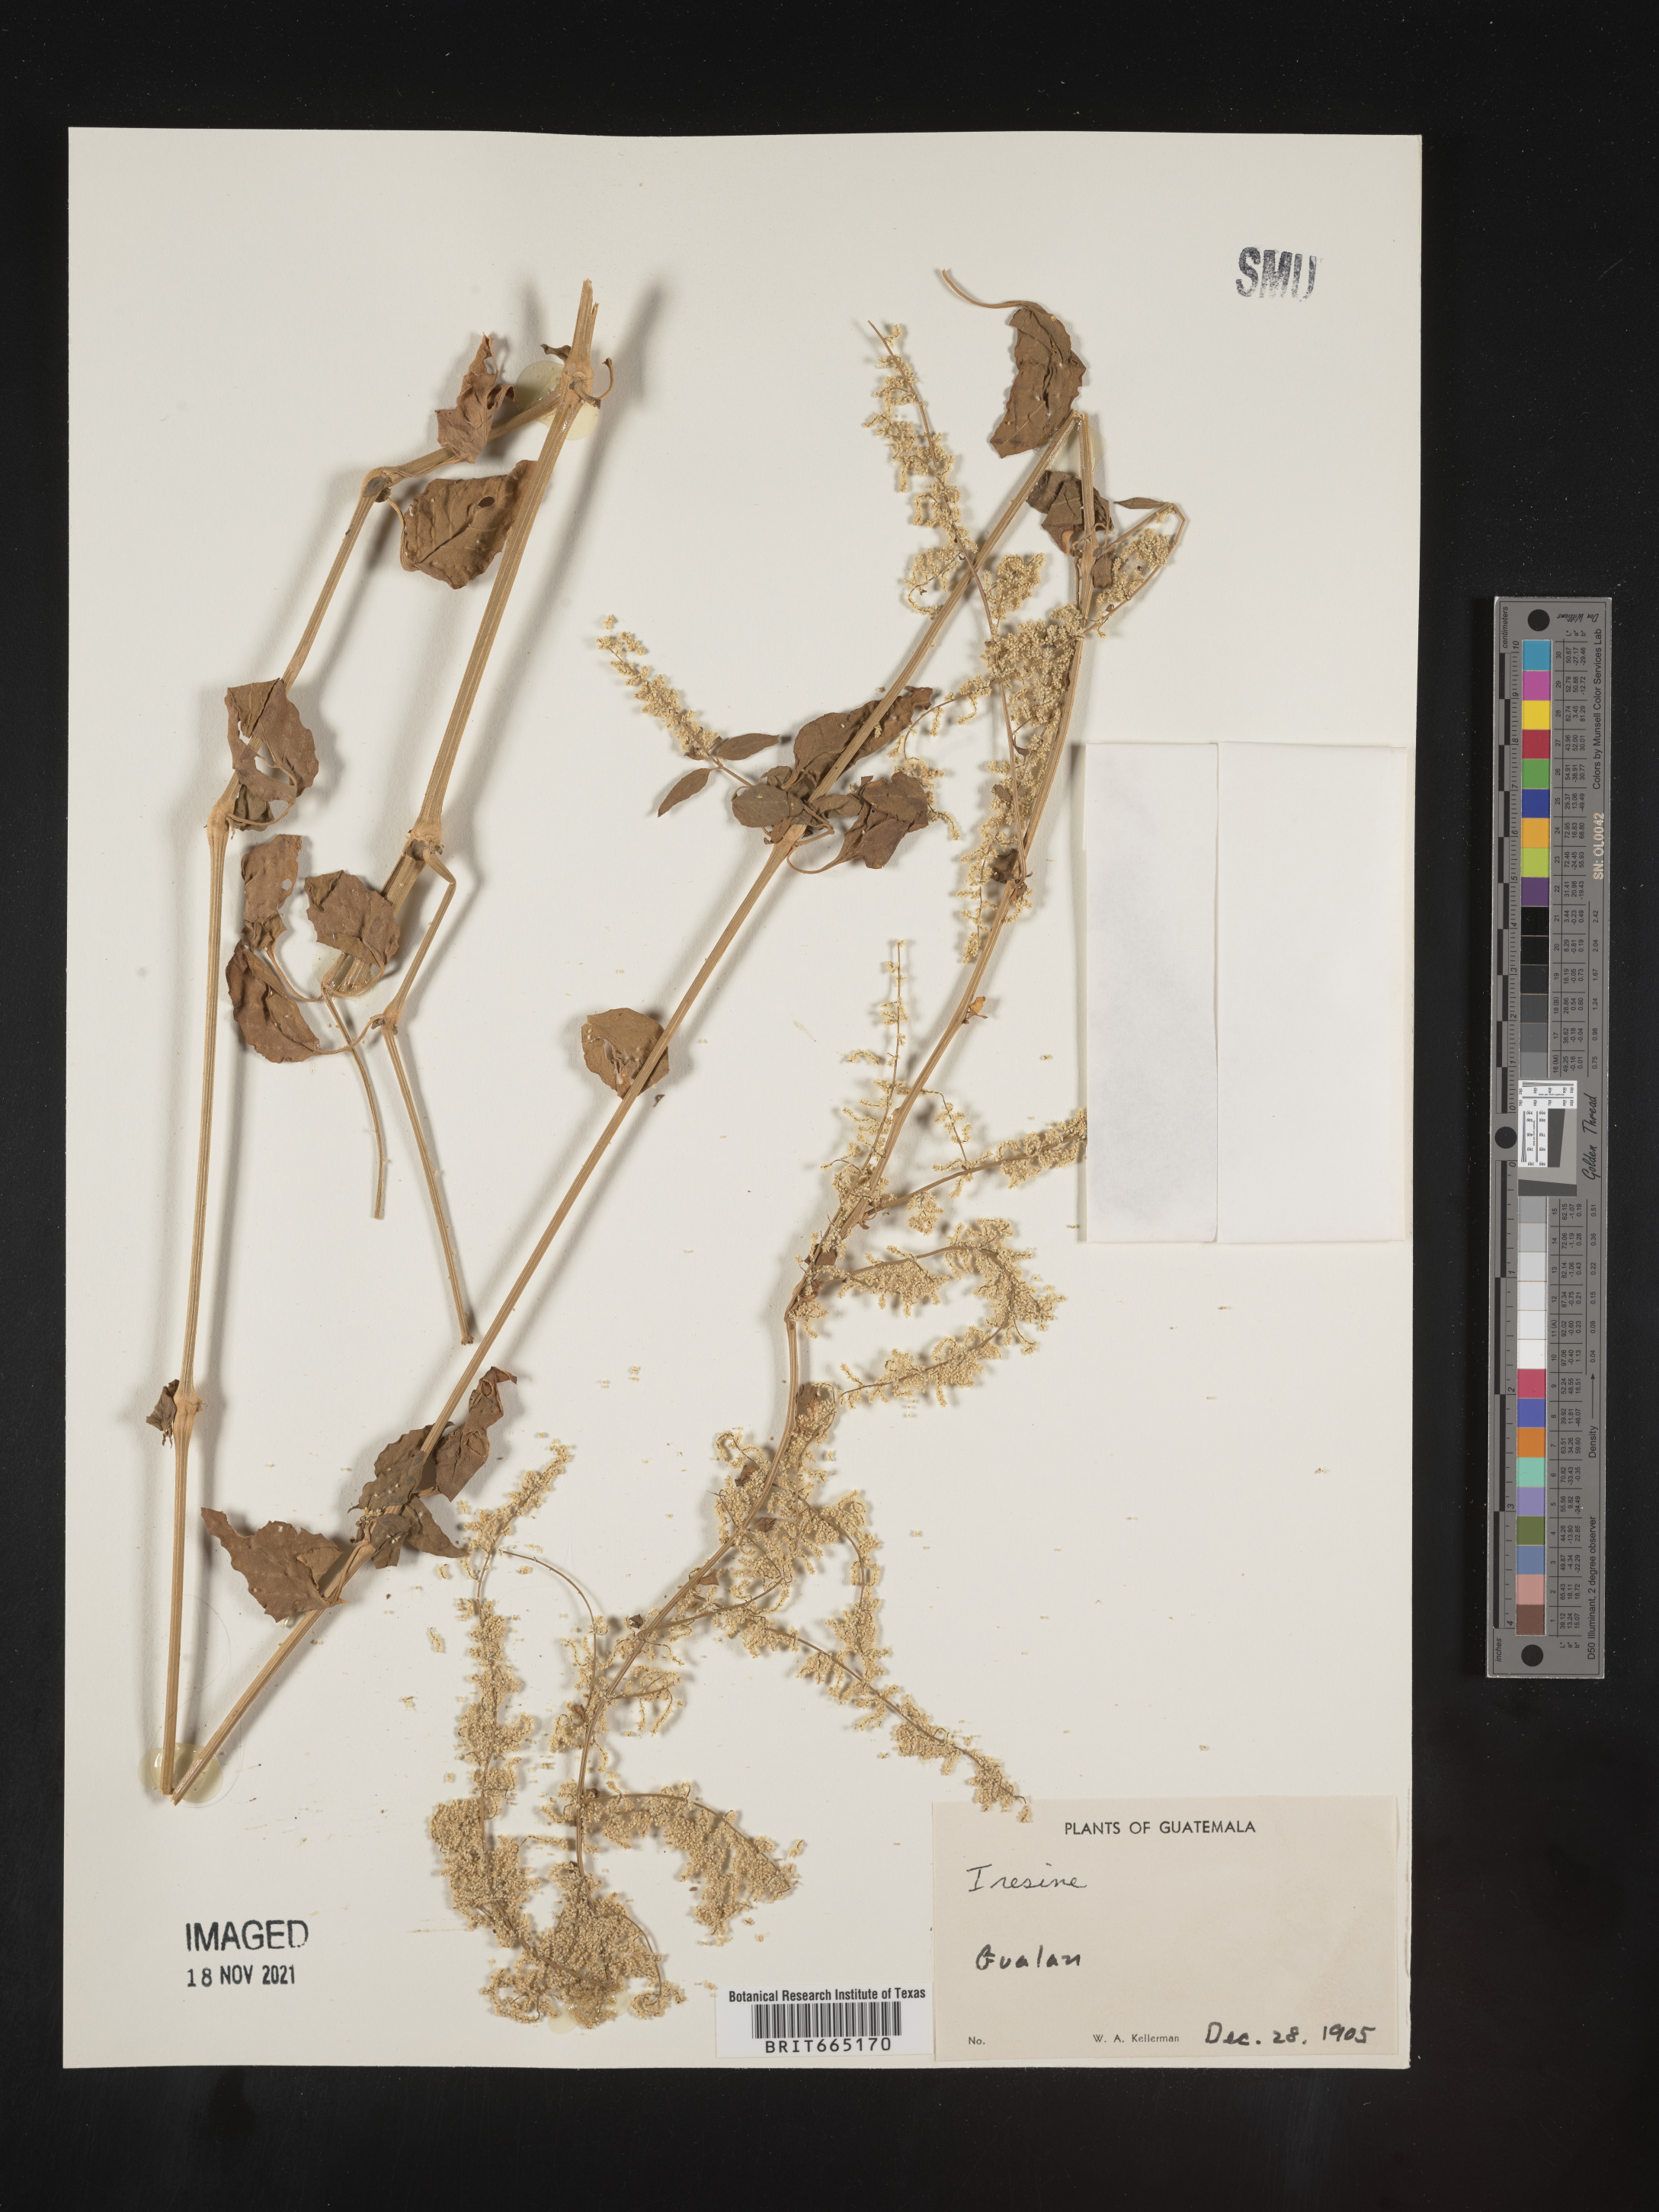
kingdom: Plantae
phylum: Tracheophyta
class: Magnoliopsida
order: Caryophyllales
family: Amaranthaceae
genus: Iresine
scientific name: Iresine
